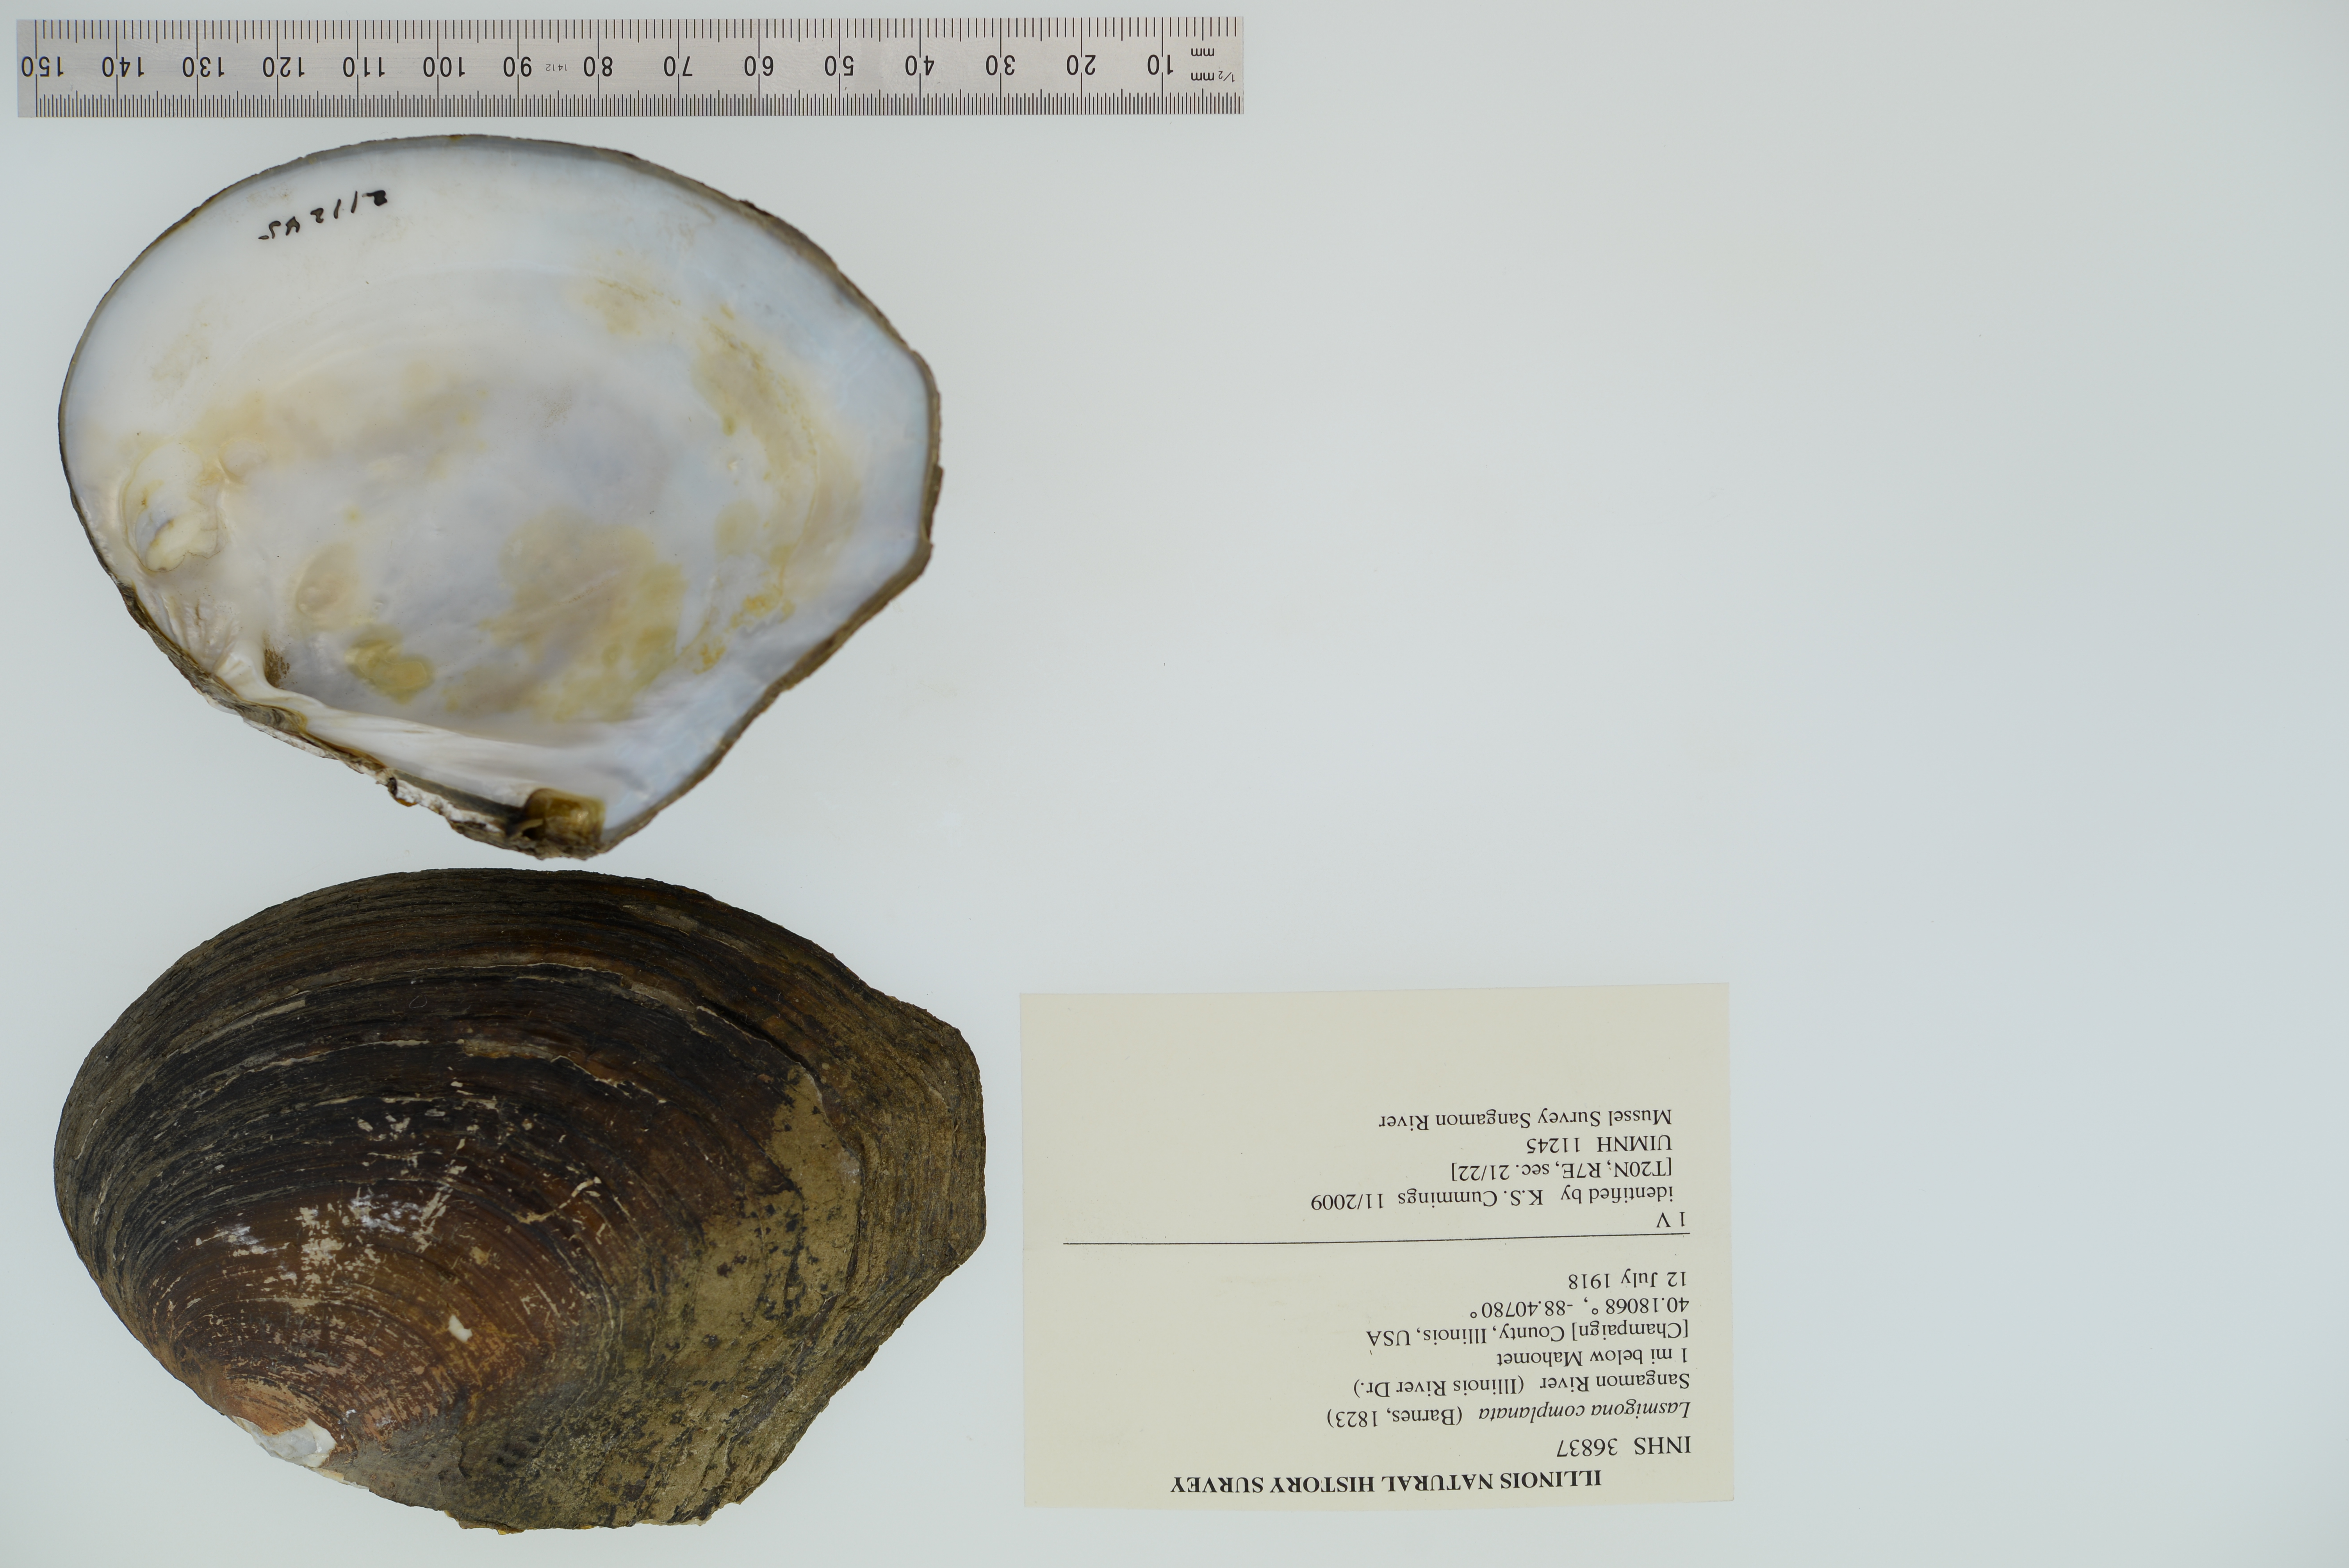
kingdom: Animalia
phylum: Mollusca
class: Bivalvia
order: Unionida
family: Unionidae
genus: Lasmigona
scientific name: Lasmigona complanata
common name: White heelsplitter
